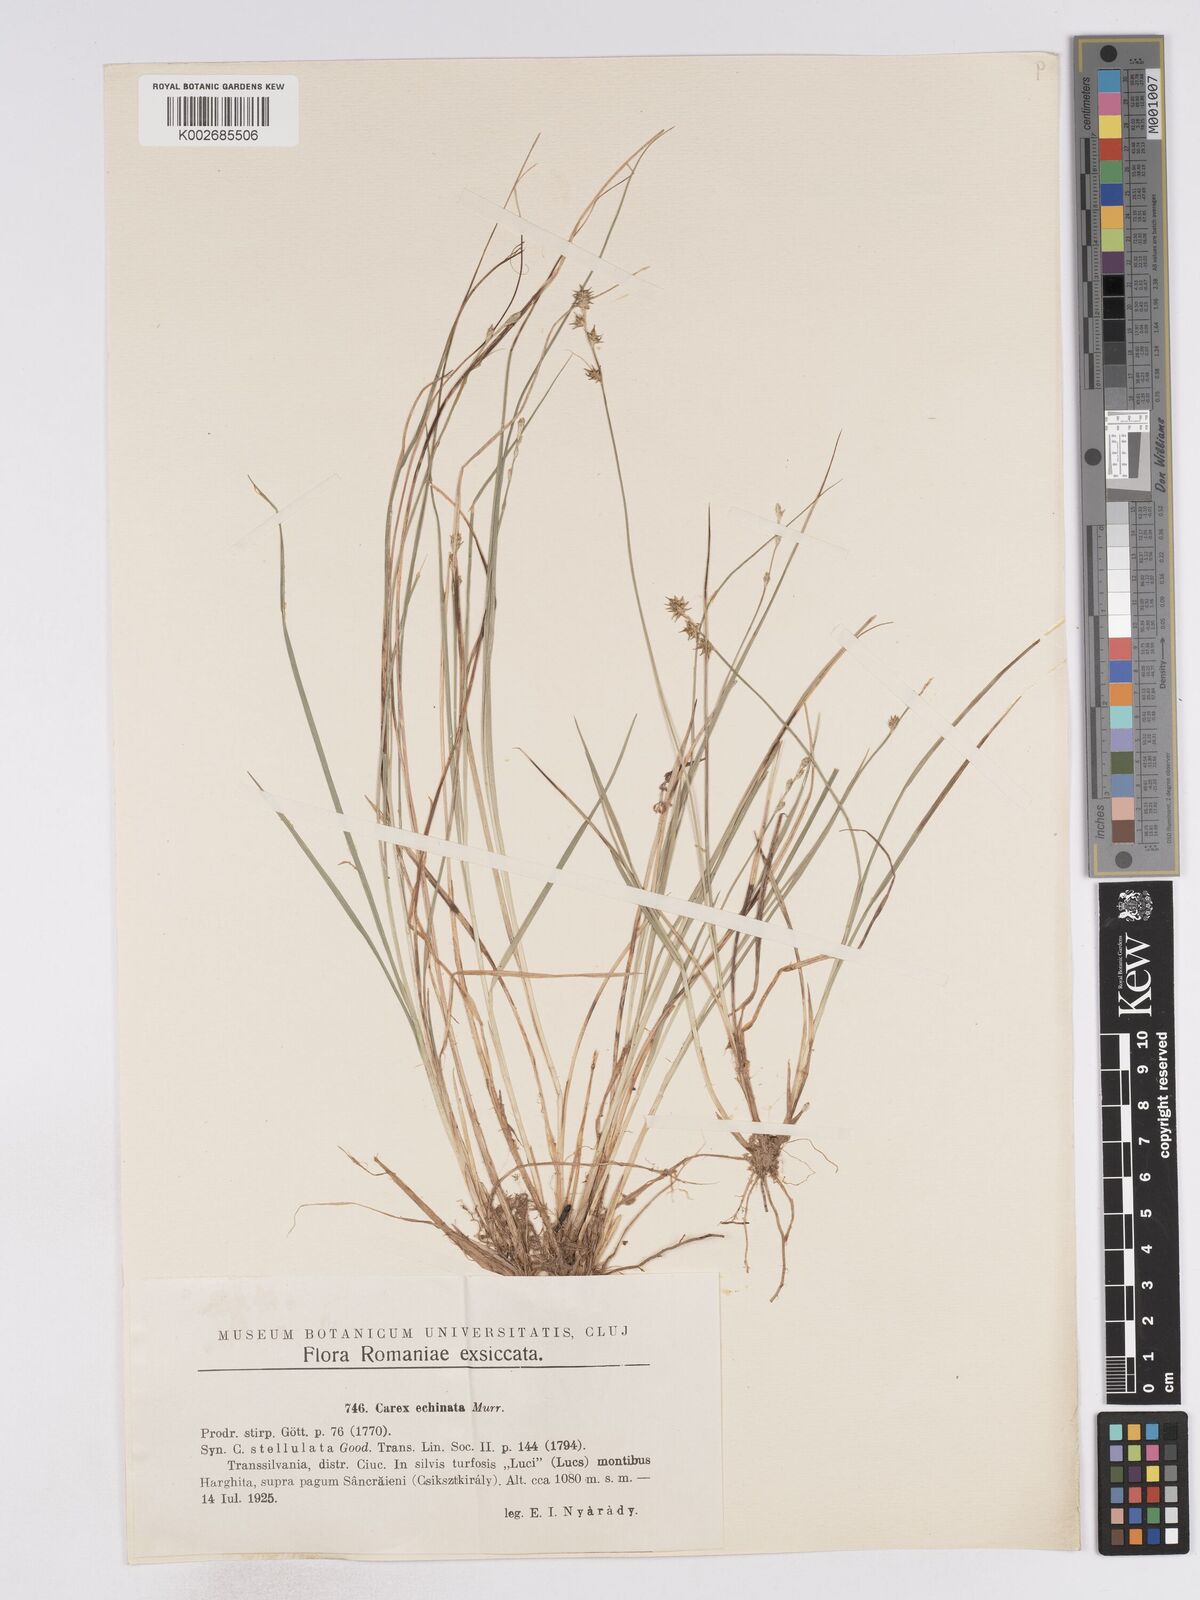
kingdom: Plantae
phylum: Tracheophyta
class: Liliopsida
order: Poales
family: Cyperaceae
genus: Carex
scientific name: Carex echinata
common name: Star sedge
